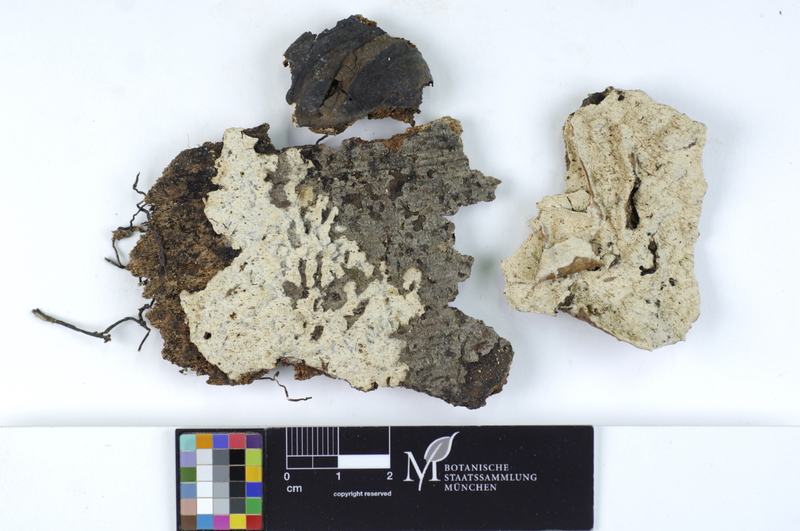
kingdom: Fungi
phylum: Basidiomycota
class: Agaricomycetes
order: Agaricales
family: Cystostereaceae
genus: Crustomyces
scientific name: Crustomyces subabruptus
